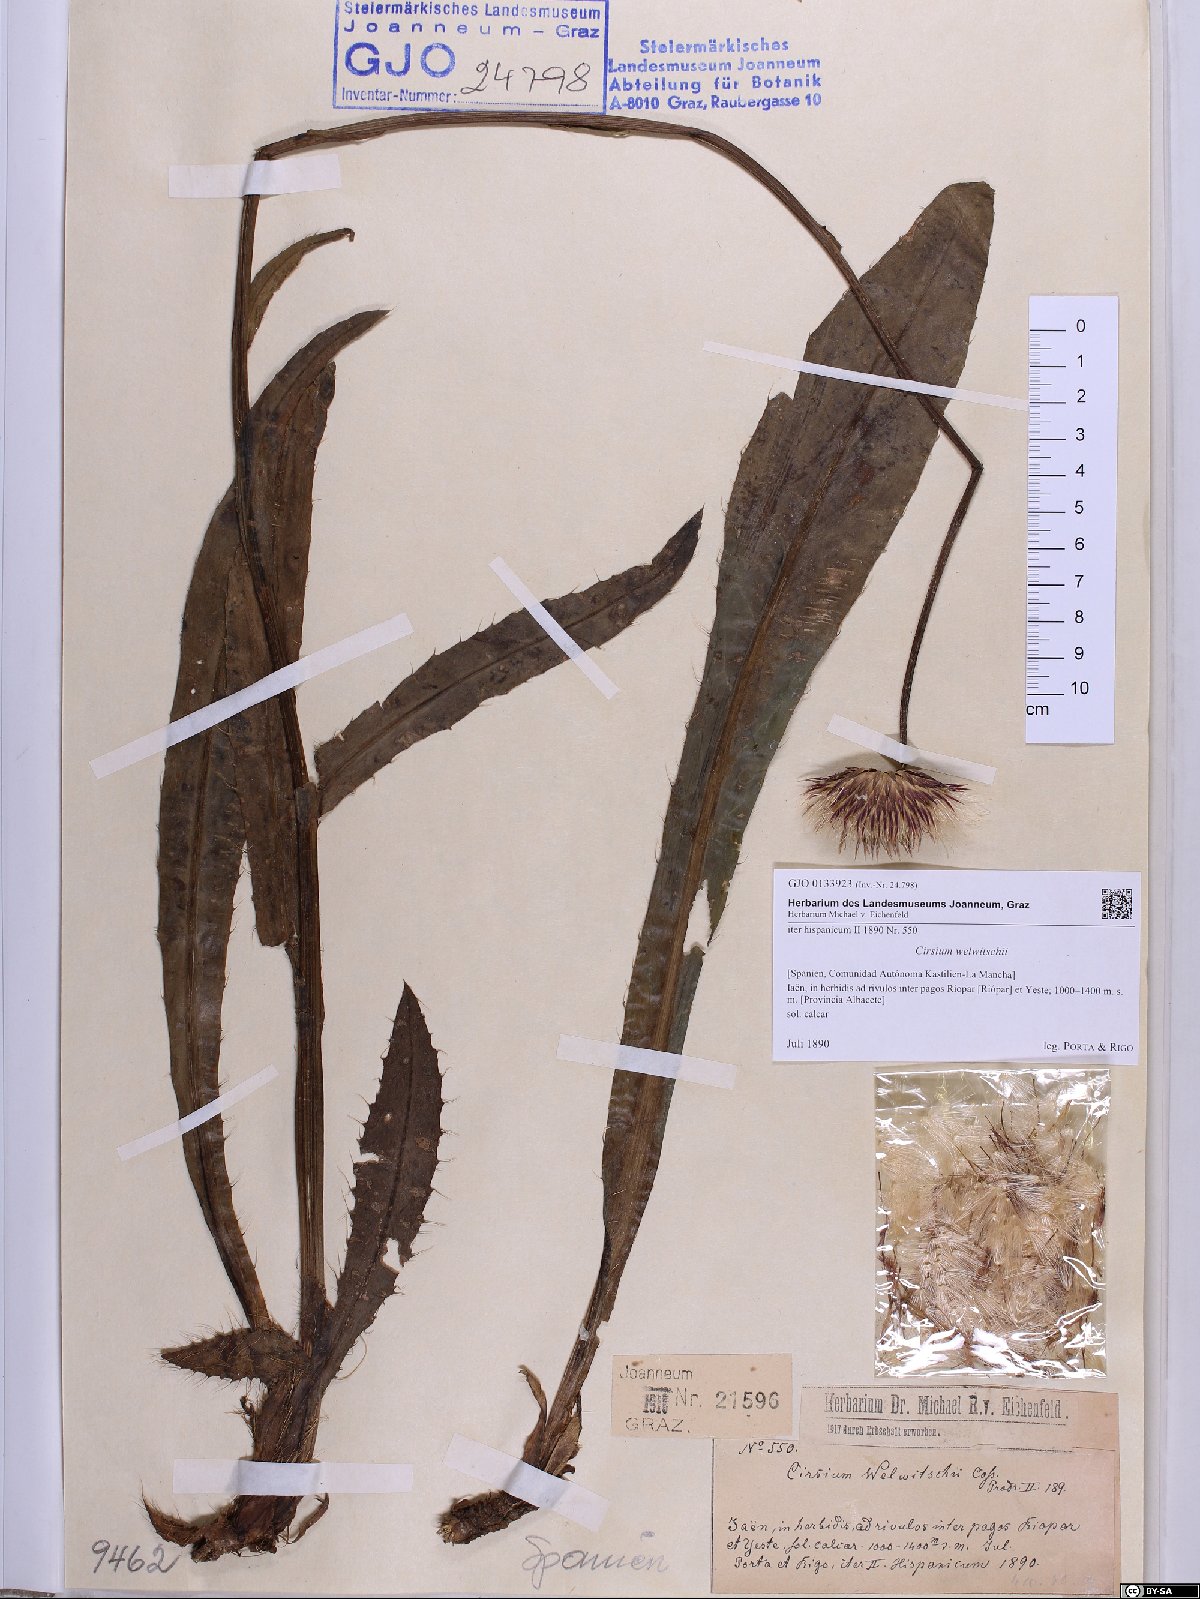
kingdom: Plantae
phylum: Tracheophyta
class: Magnoliopsida
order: Asterales
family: Asteraceae
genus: Cirsium
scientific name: Cirsium welwitschii
